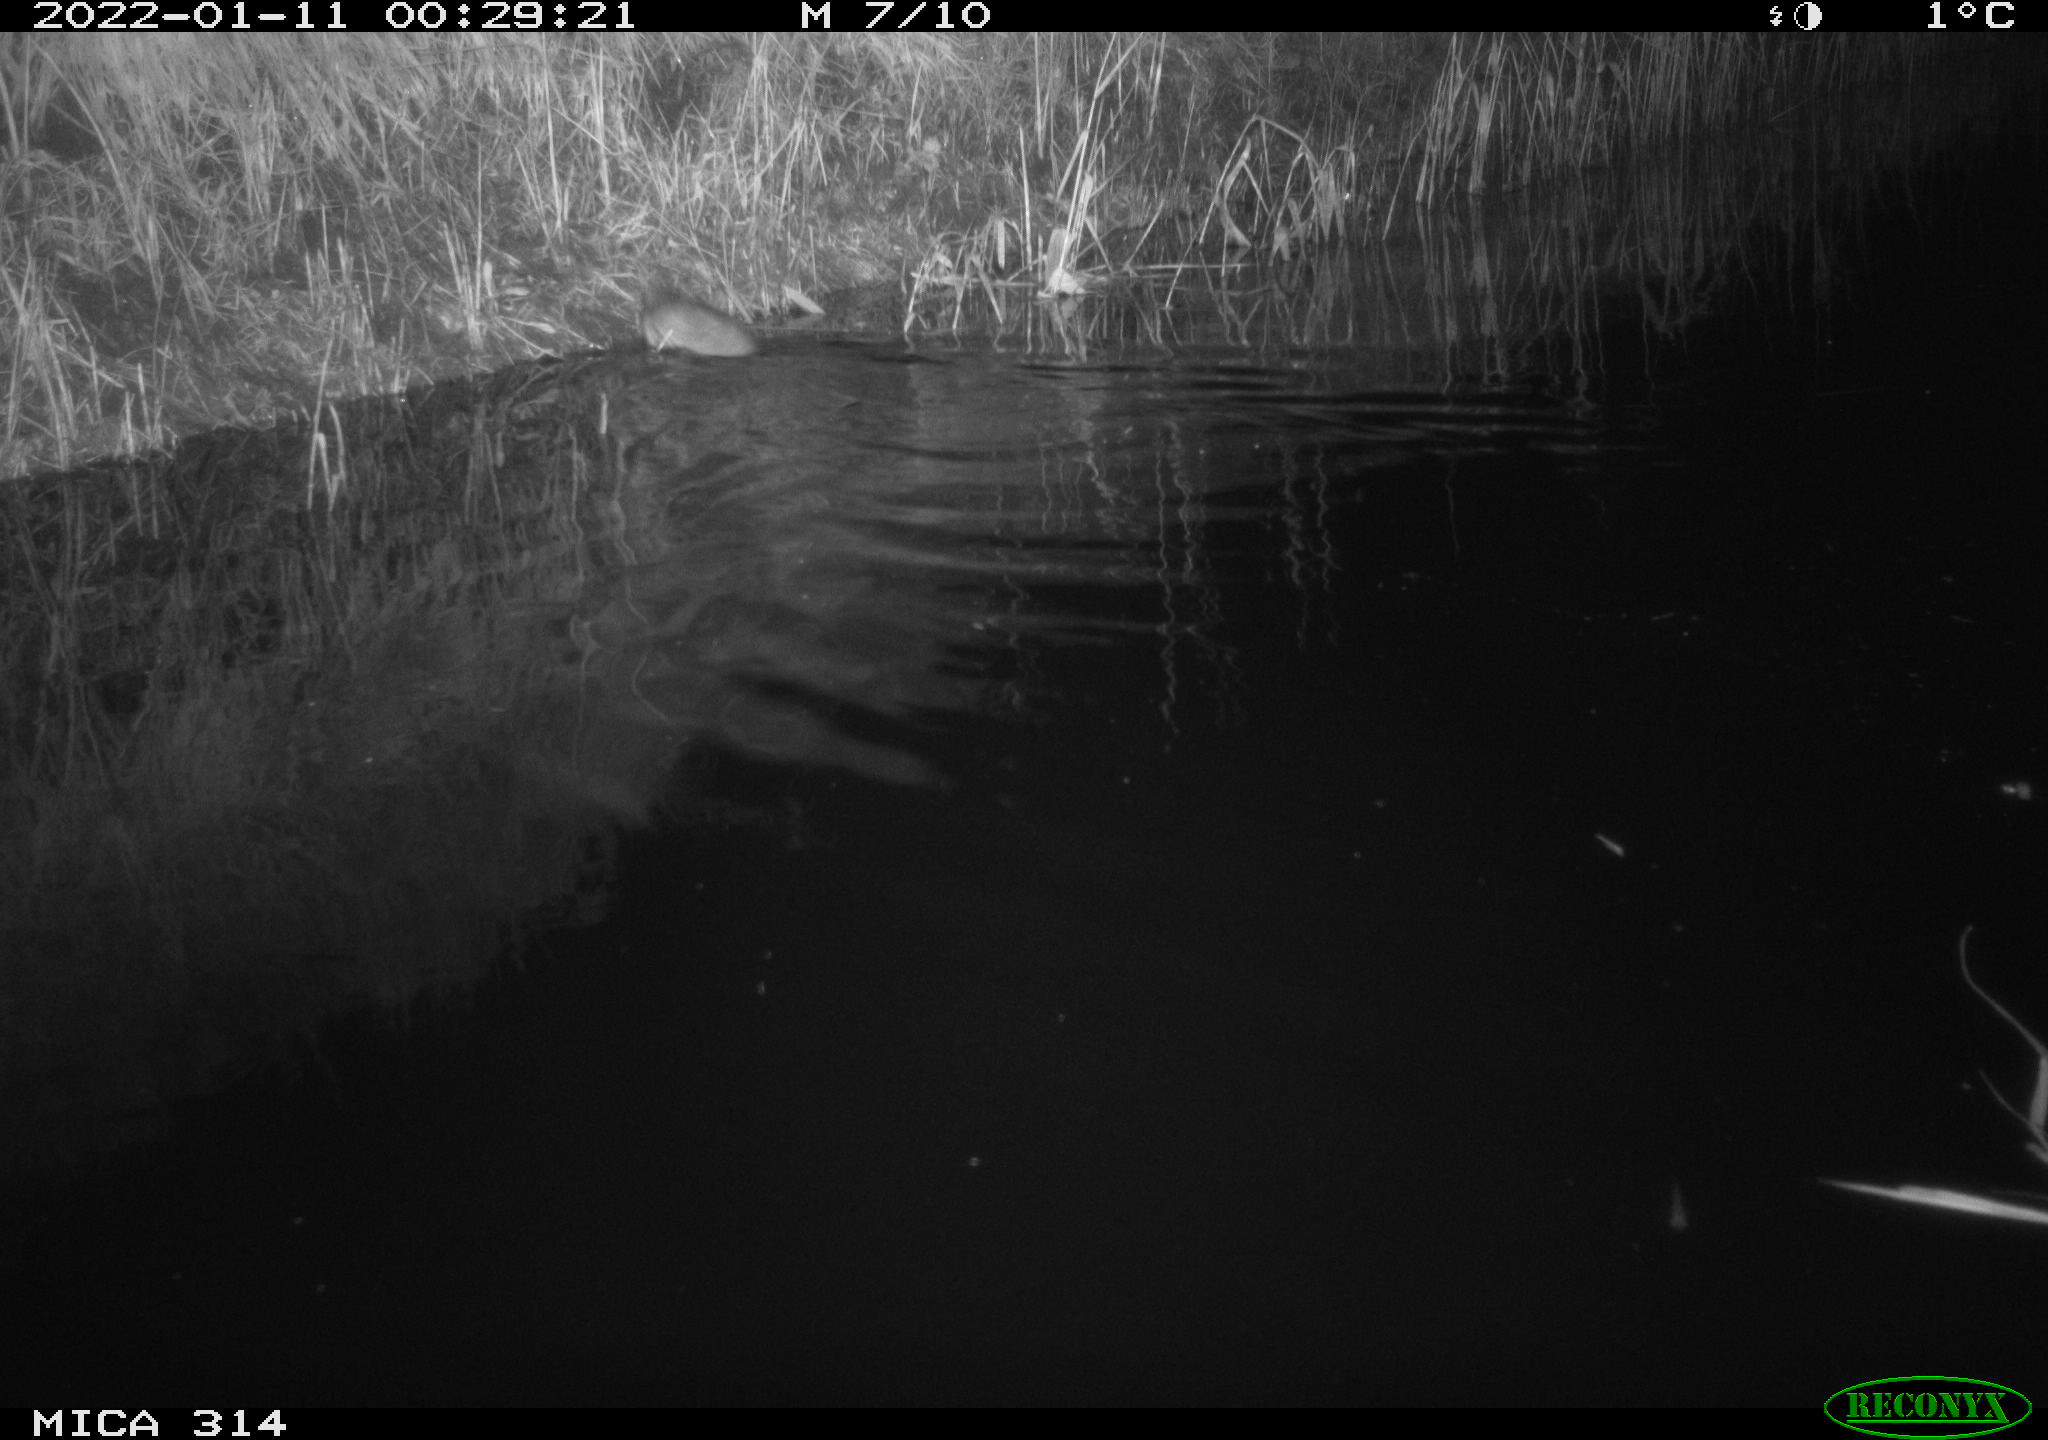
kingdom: Animalia
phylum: Chordata
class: Mammalia
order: Rodentia
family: Muridae
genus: Rattus
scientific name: Rattus norvegicus
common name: Brown rat
